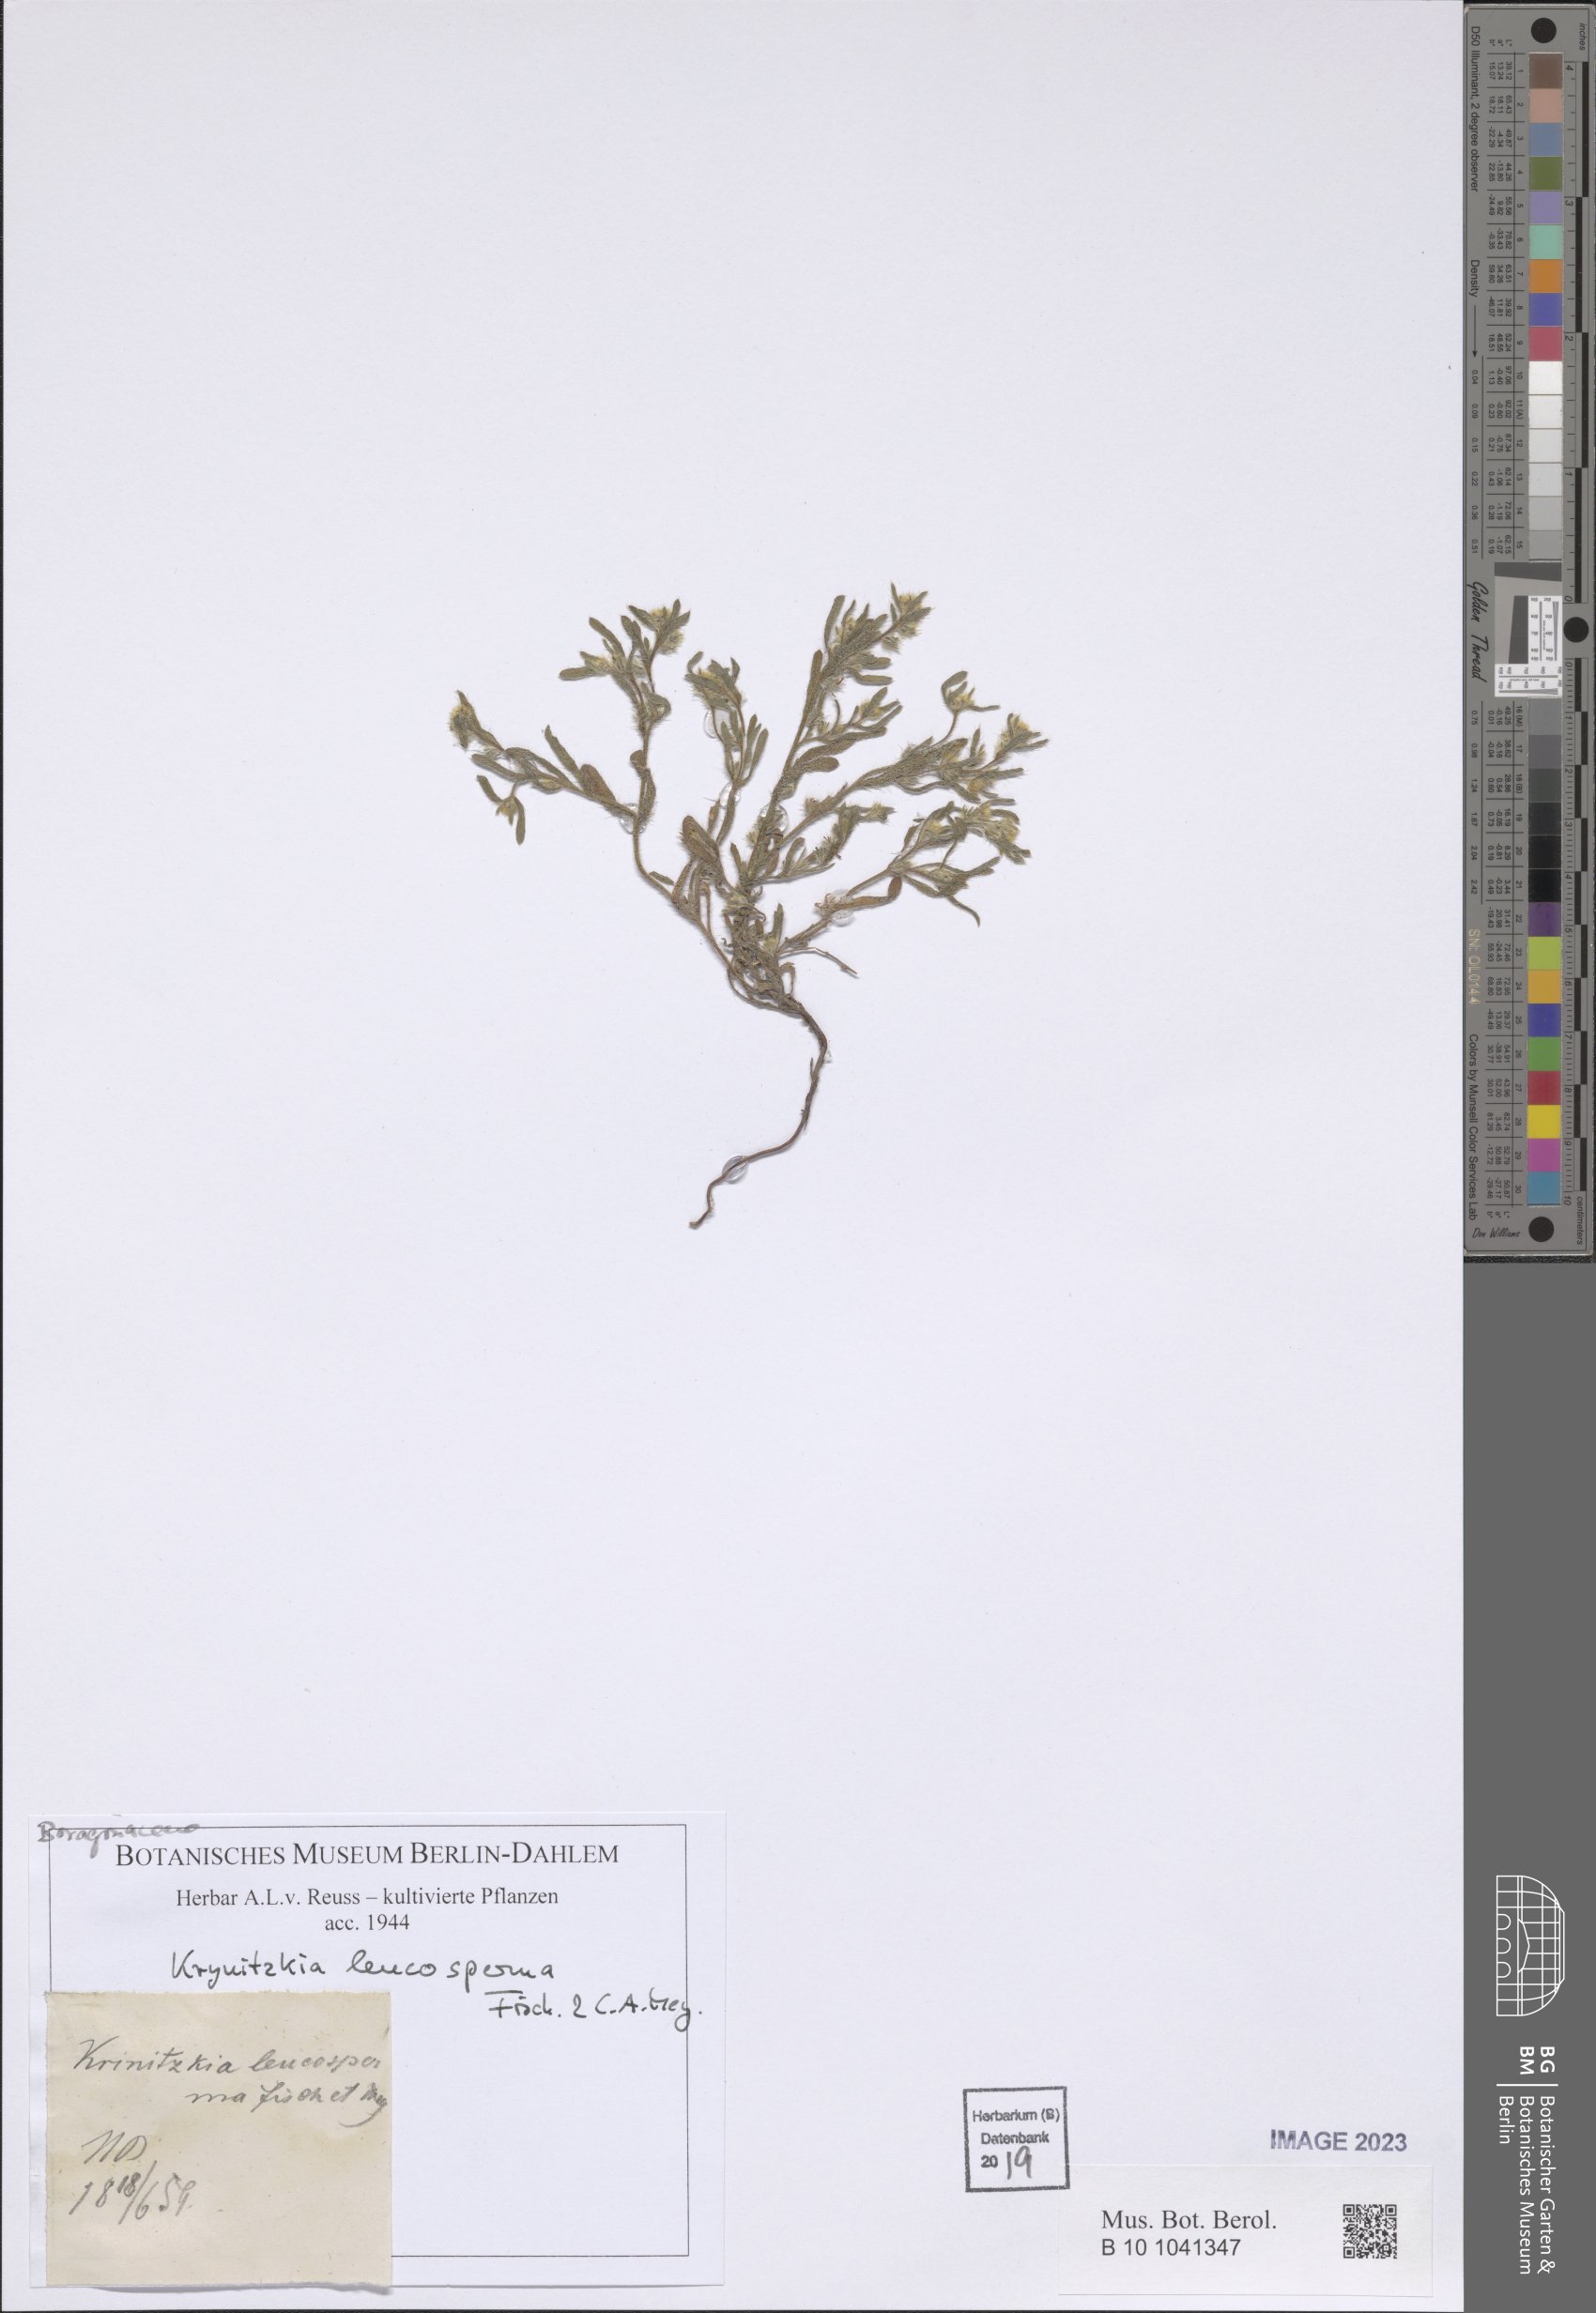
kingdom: Plantae
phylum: Tracheophyta
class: Magnoliopsida
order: Boraginales
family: Boraginaceae
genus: Cryptantha
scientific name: Cryptantha
